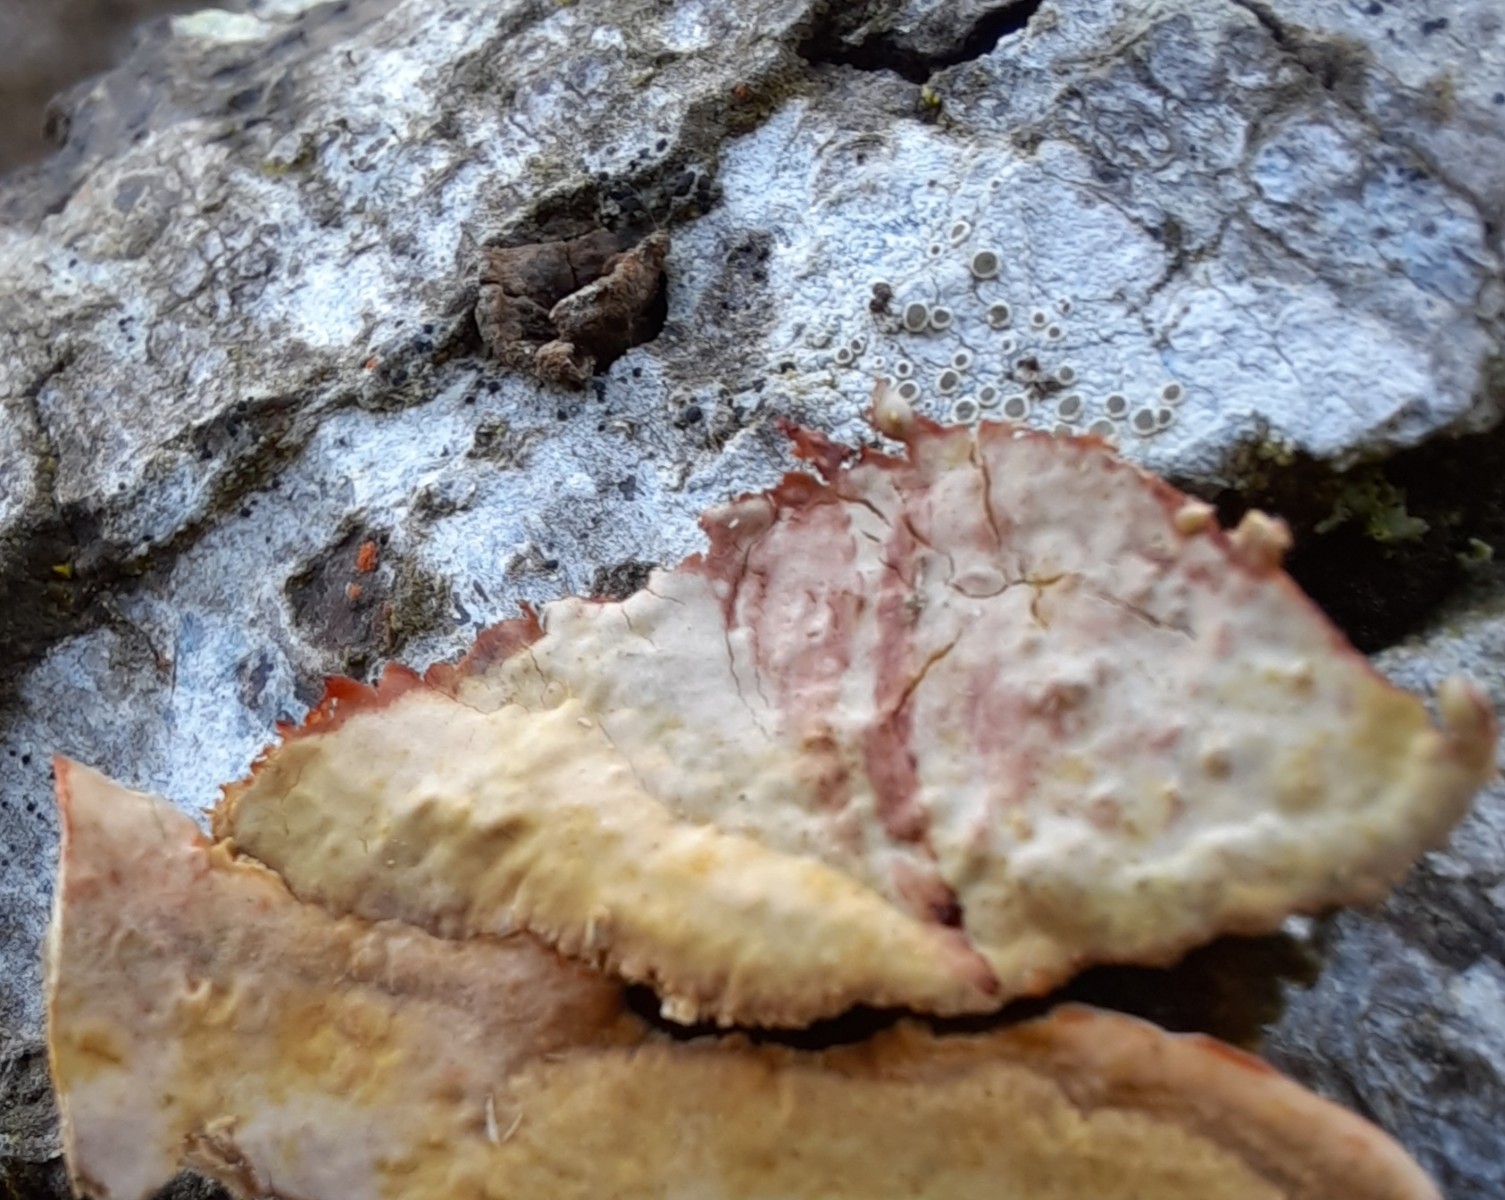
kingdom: Fungi
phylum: Basidiomycota
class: Agaricomycetes
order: Russulales
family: Stereaceae
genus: Stereum
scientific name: Stereum rugosum
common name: rynket lædersvamp
